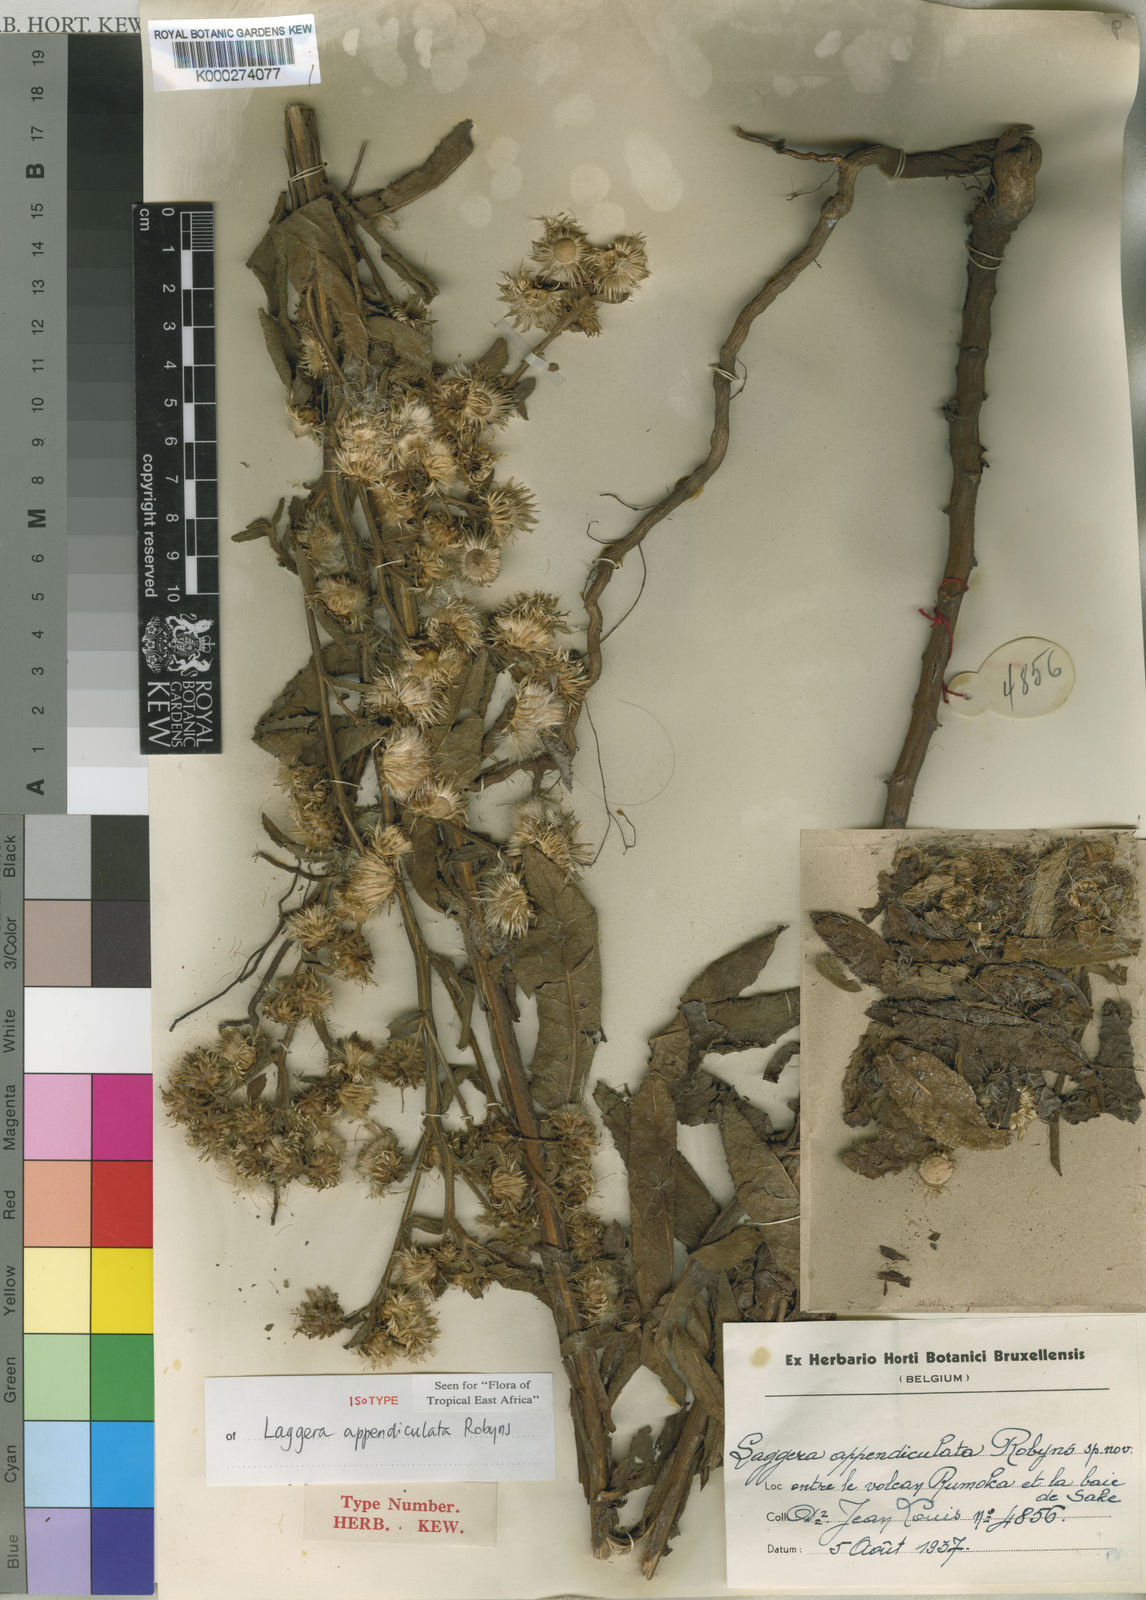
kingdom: Plantae
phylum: Tracheophyta
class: Magnoliopsida
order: Asterales
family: Asteraceae
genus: Laggera
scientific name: Laggera brevipes
